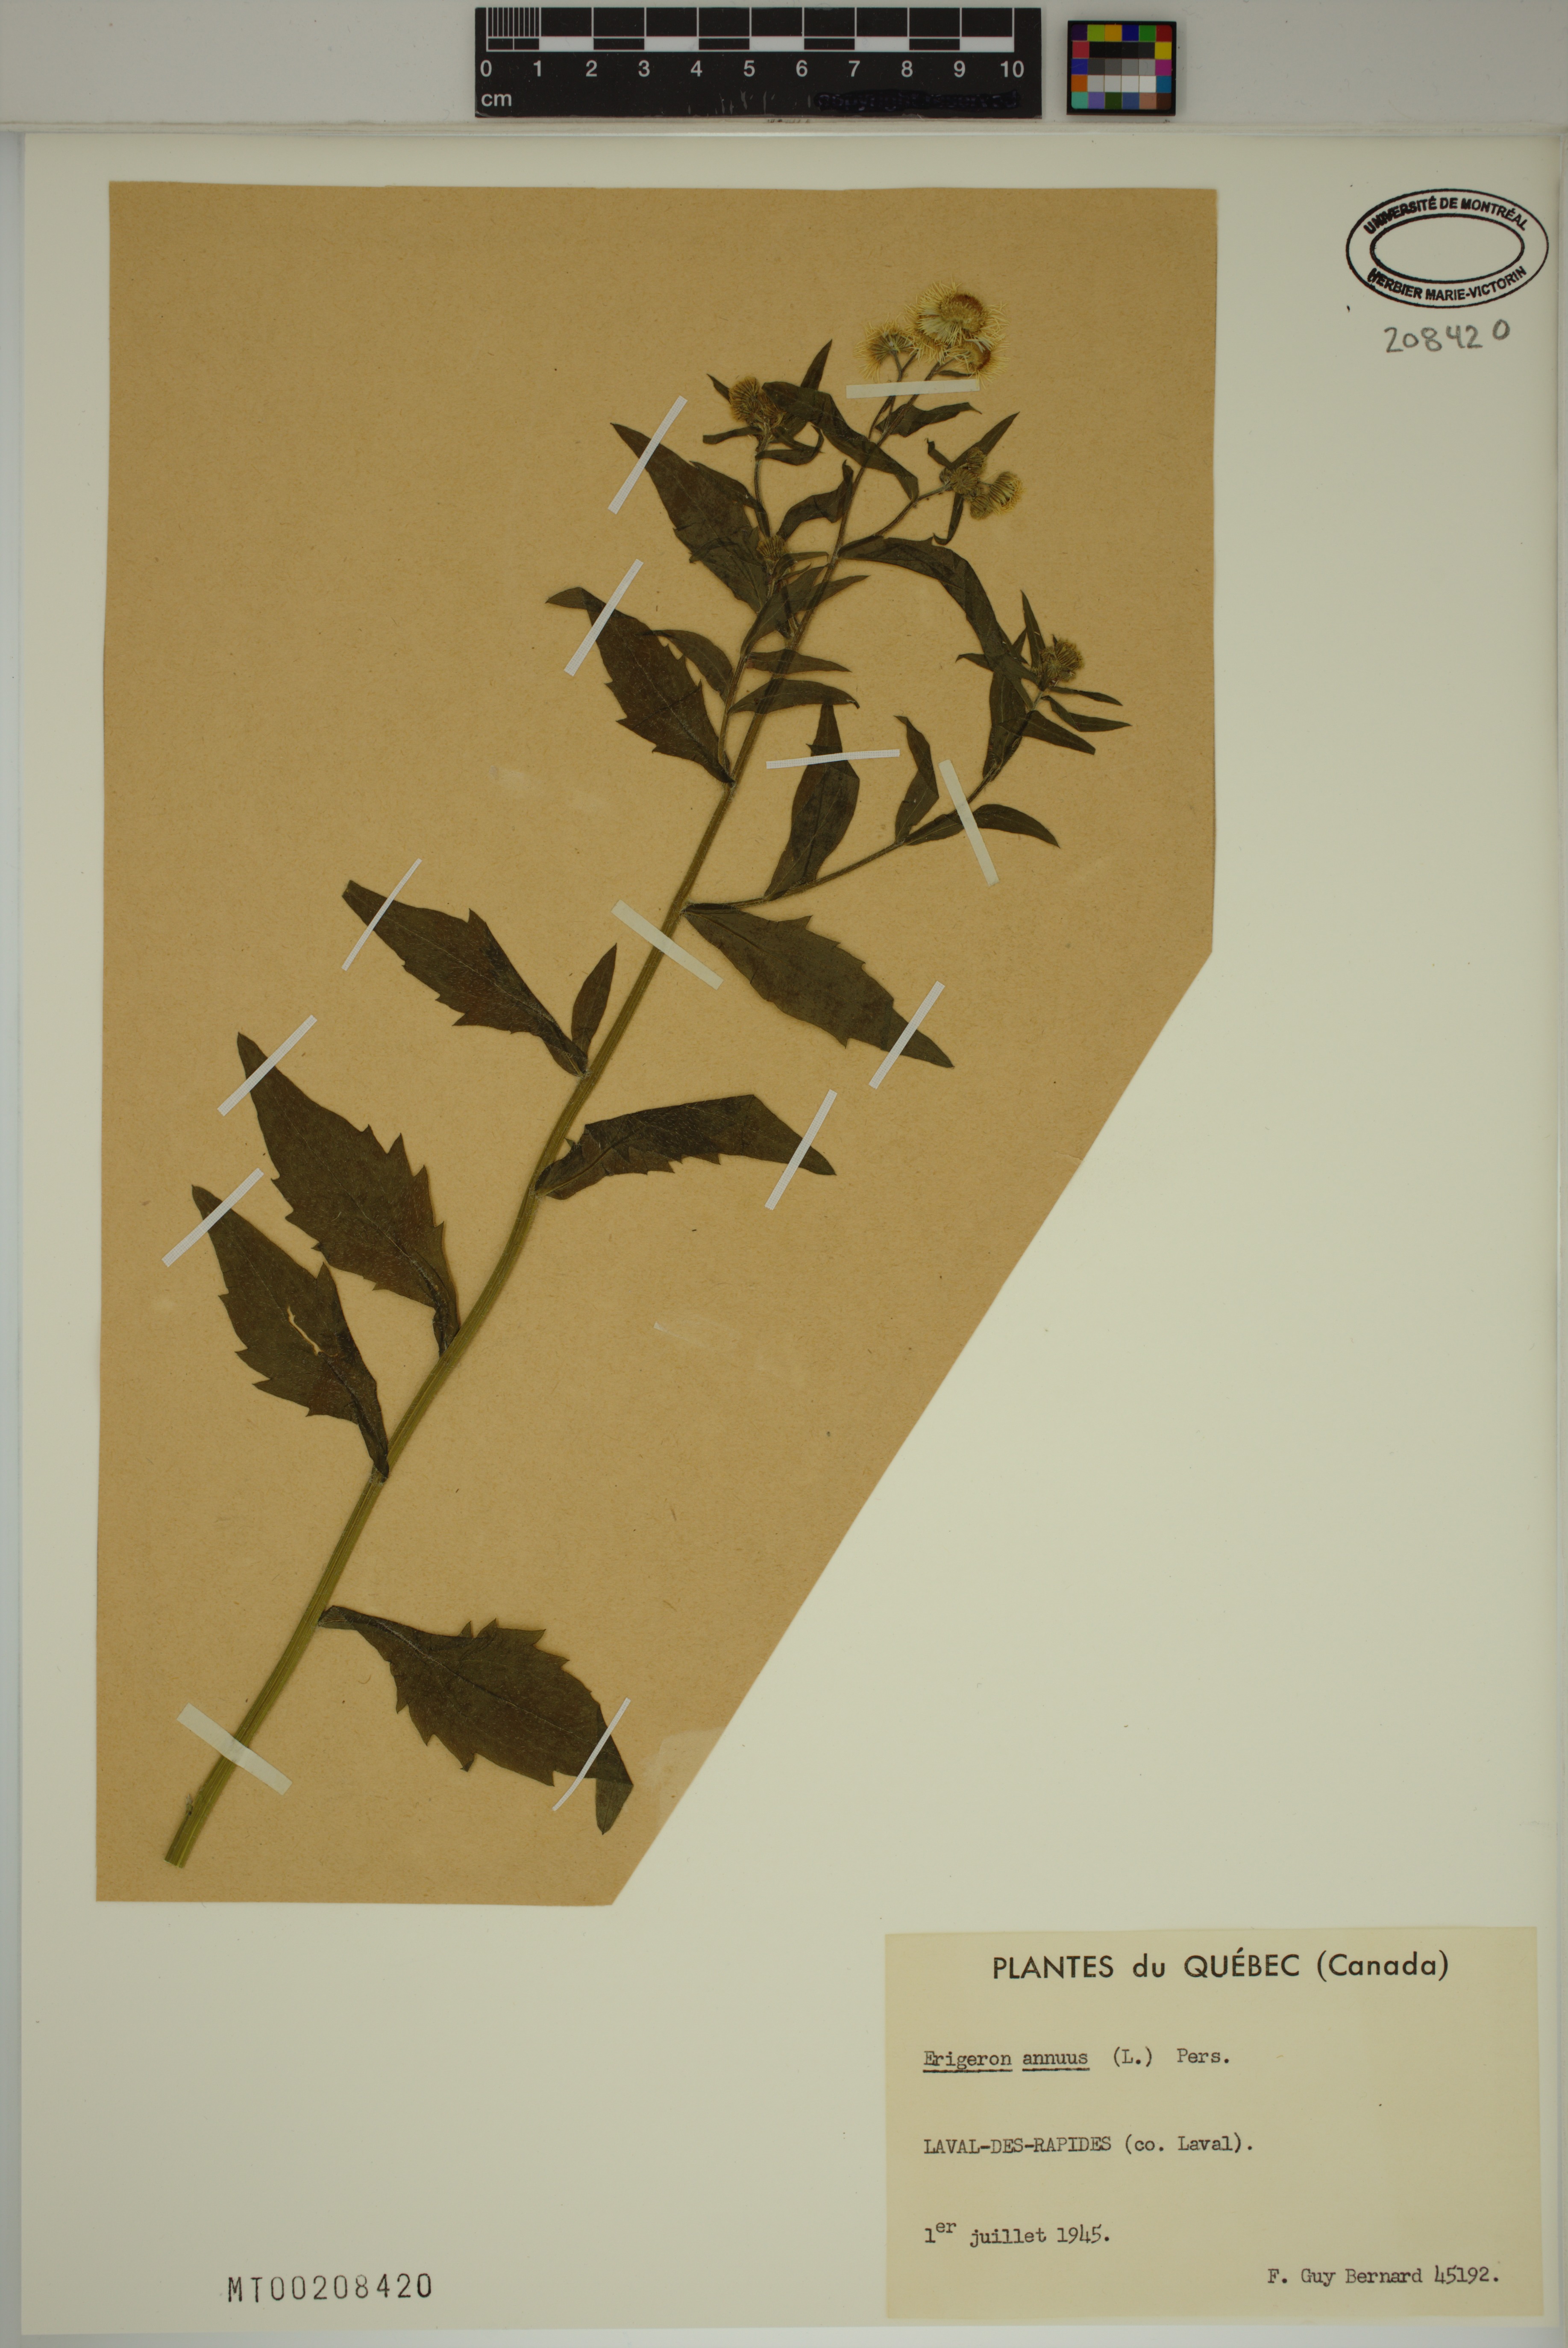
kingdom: Plantae
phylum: Tracheophyta
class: Magnoliopsida
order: Asterales
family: Asteraceae
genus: Erigeron
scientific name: Erigeron annuus
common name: Tall fleabane
